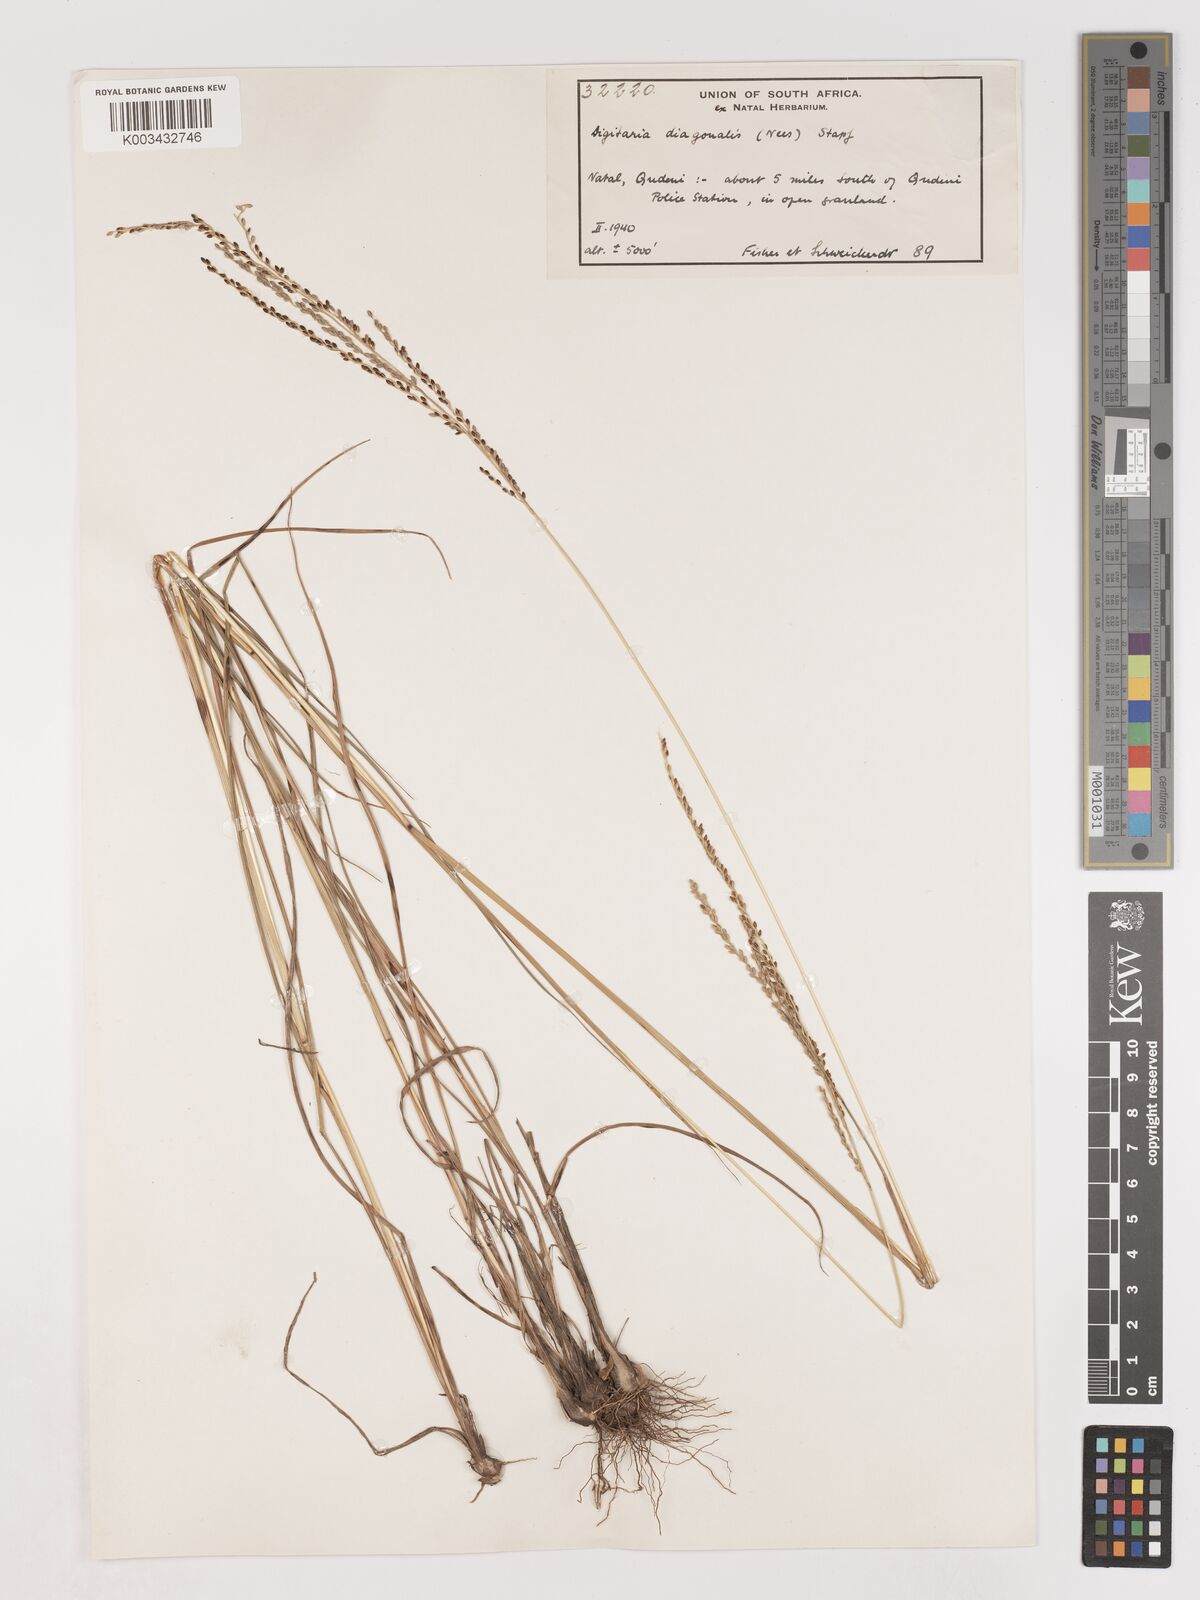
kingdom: Plantae
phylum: Tracheophyta
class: Liliopsida
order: Poales
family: Poaceae
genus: Digitaria
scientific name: Digitaria diagonalis
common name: Brown-seed finger grass
